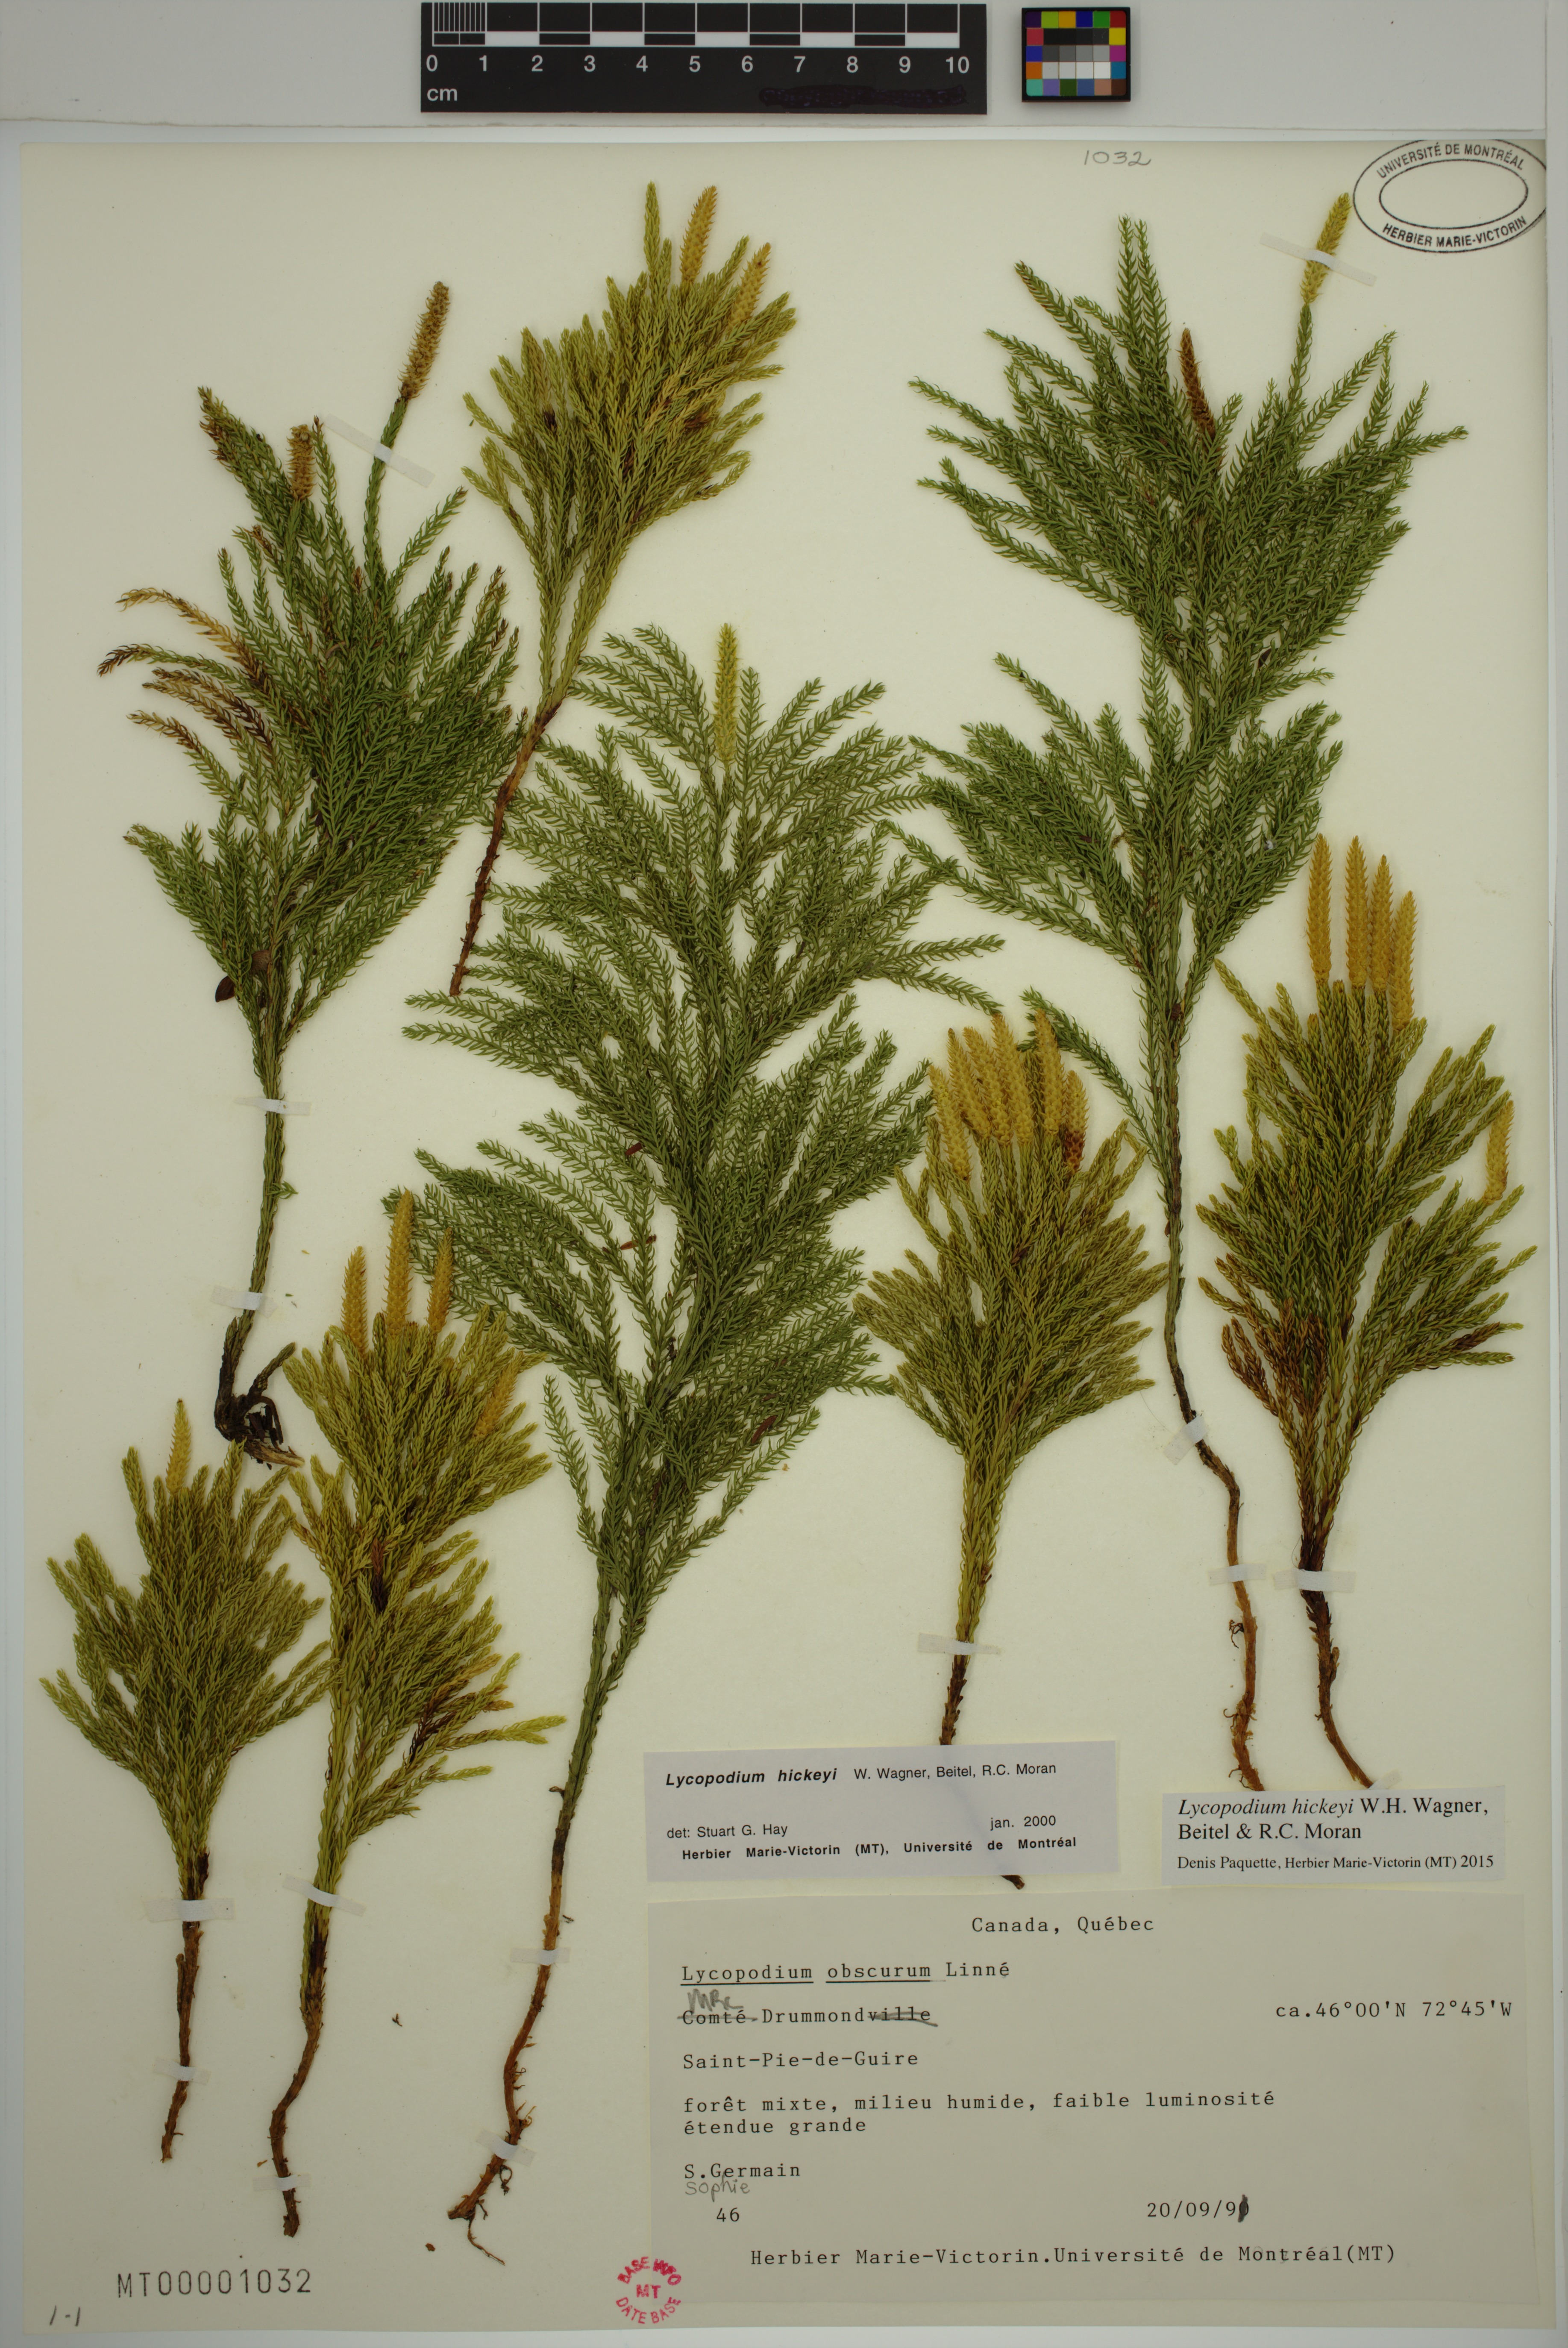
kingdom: Plantae
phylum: Tracheophyta
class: Lycopodiopsida
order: Lycopodiales
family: Lycopodiaceae
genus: Dendrolycopodium
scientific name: Dendrolycopodium hickeyi
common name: Hickey's clubmoss
